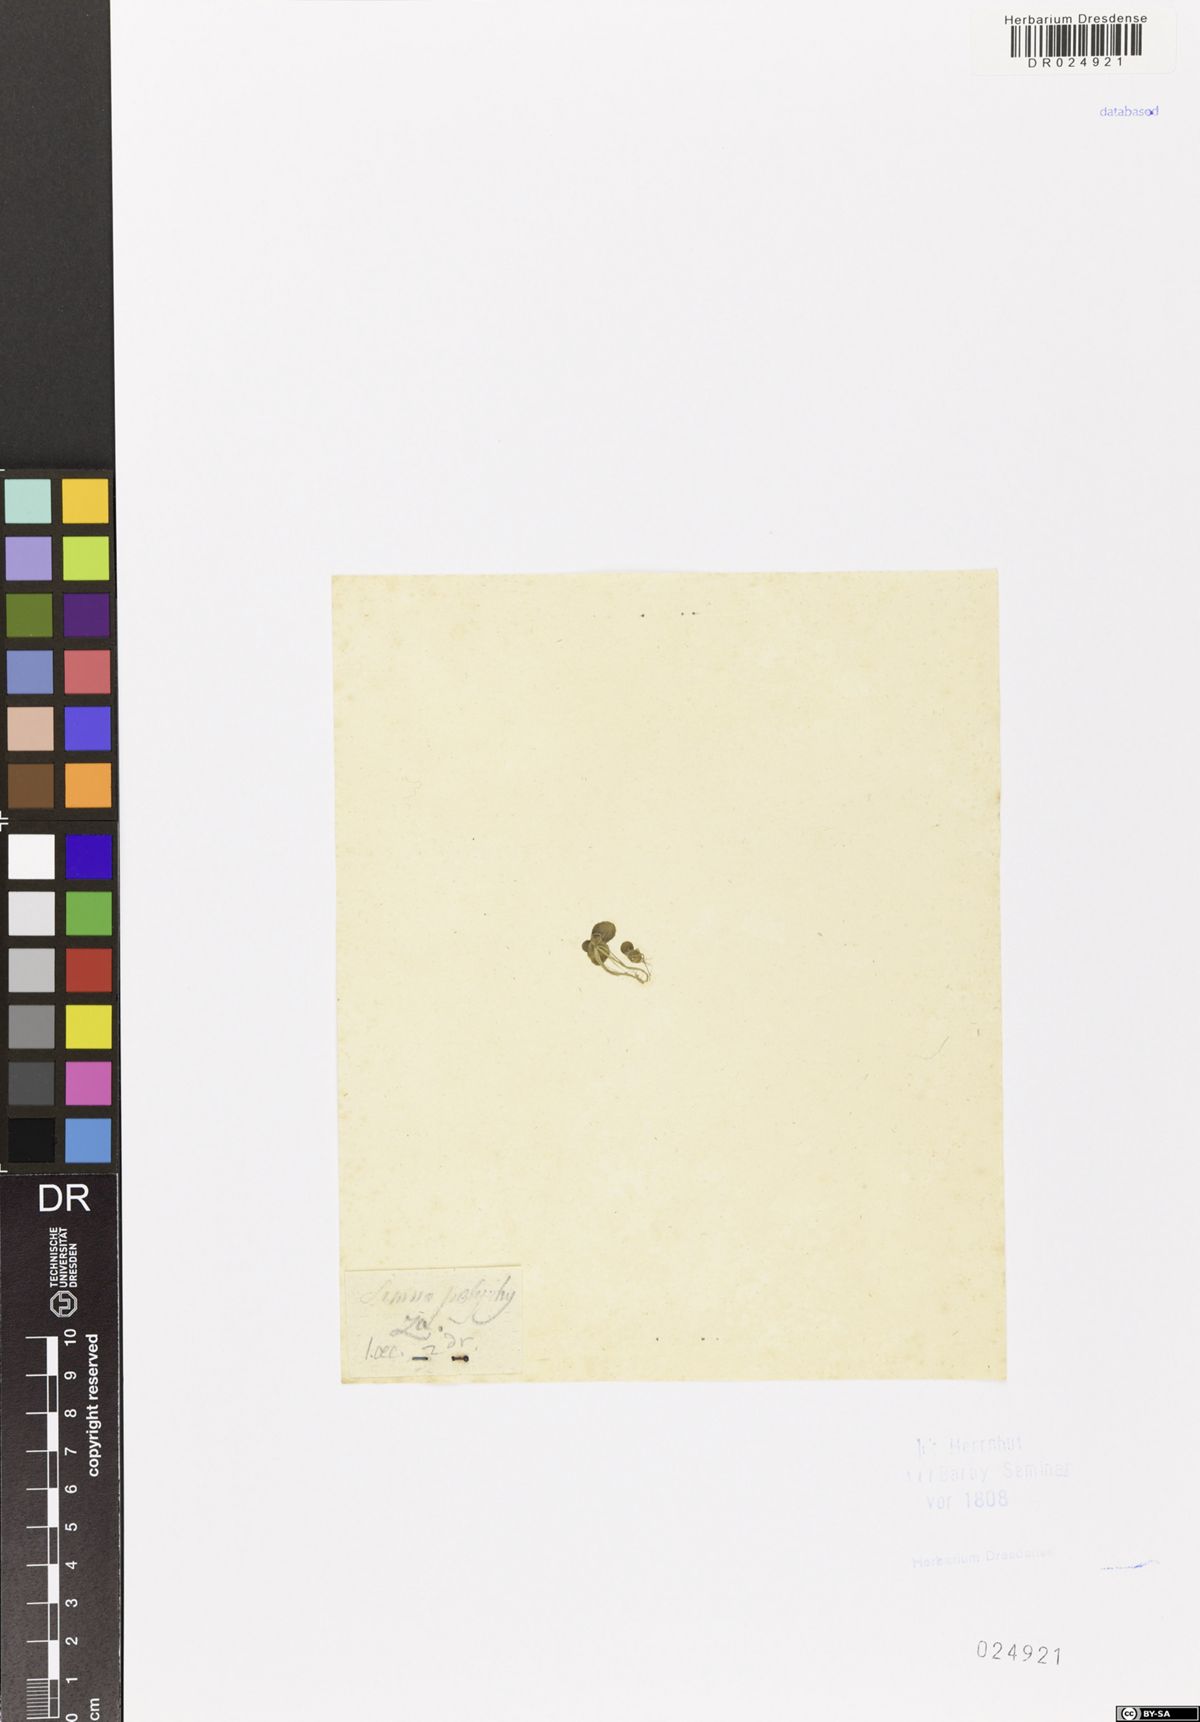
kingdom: Plantae
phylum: Tracheophyta
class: Liliopsida
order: Alismatales
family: Araceae
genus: Spirodela
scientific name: Spirodela polyrhiza
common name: Great duckweed
